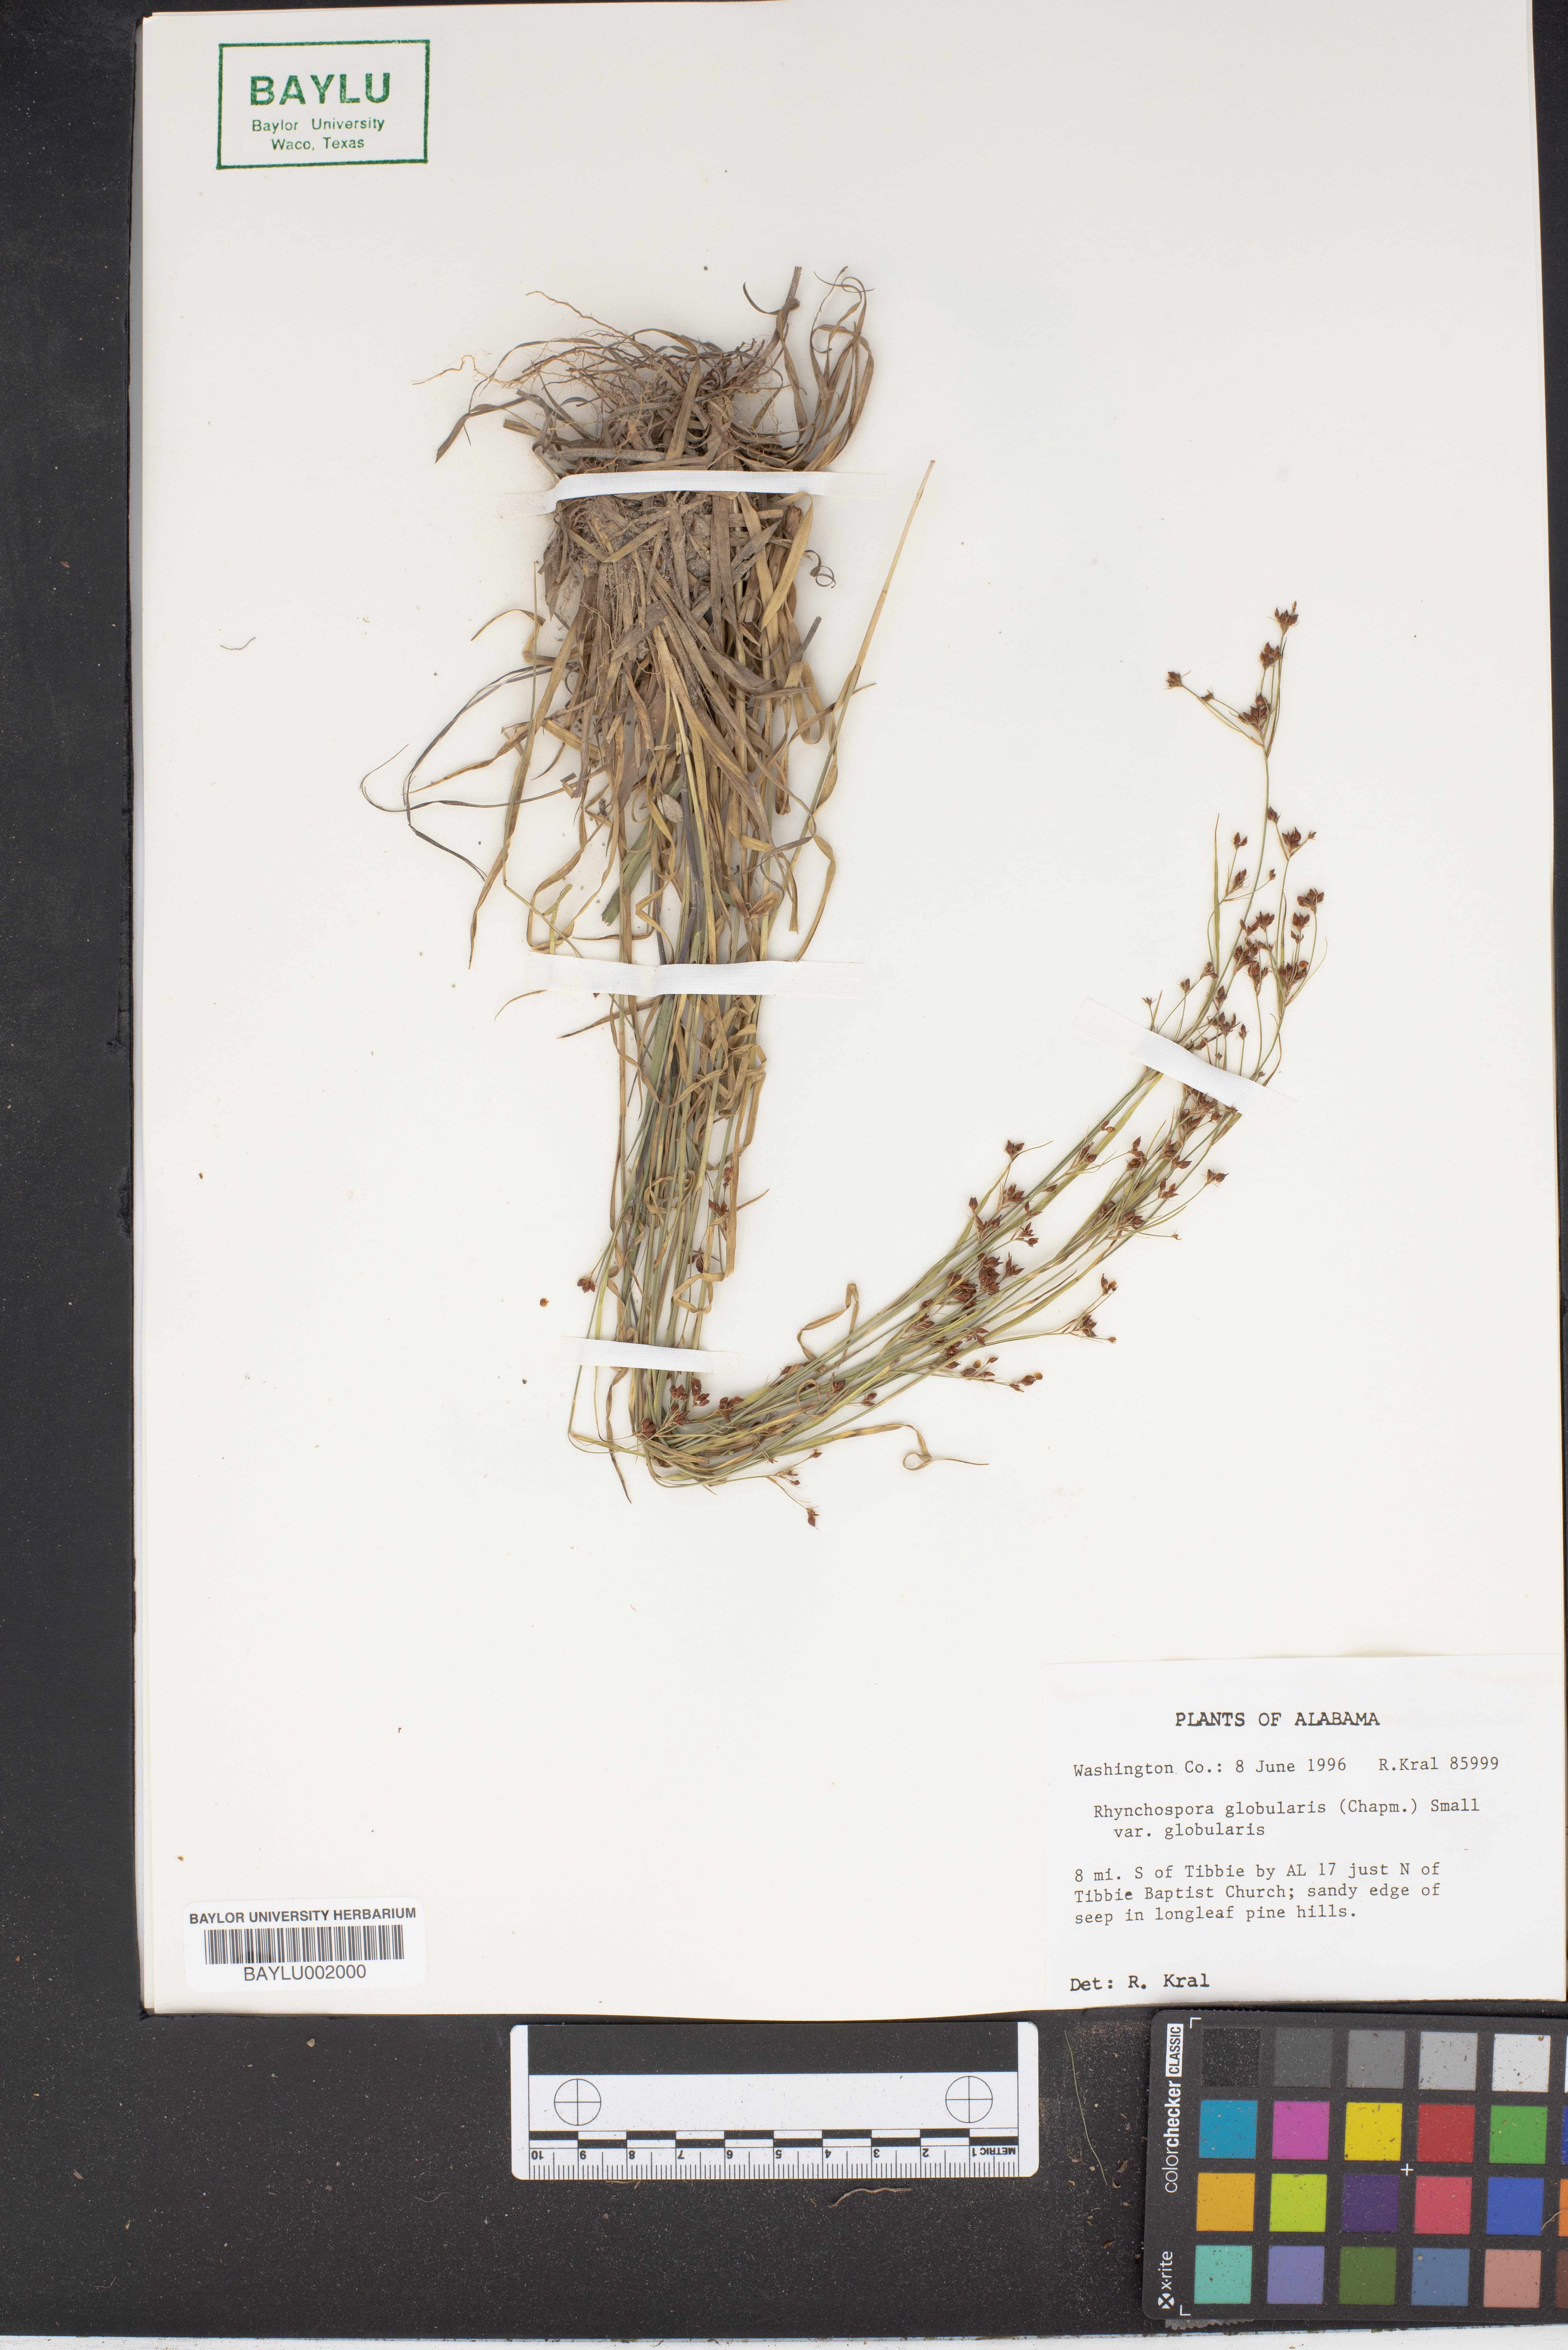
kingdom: Plantae
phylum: Tracheophyta
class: Liliopsida
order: Poales
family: Cyperaceae
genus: Rhynchospora
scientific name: Rhynchospora globularis
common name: Globe beaksedge
